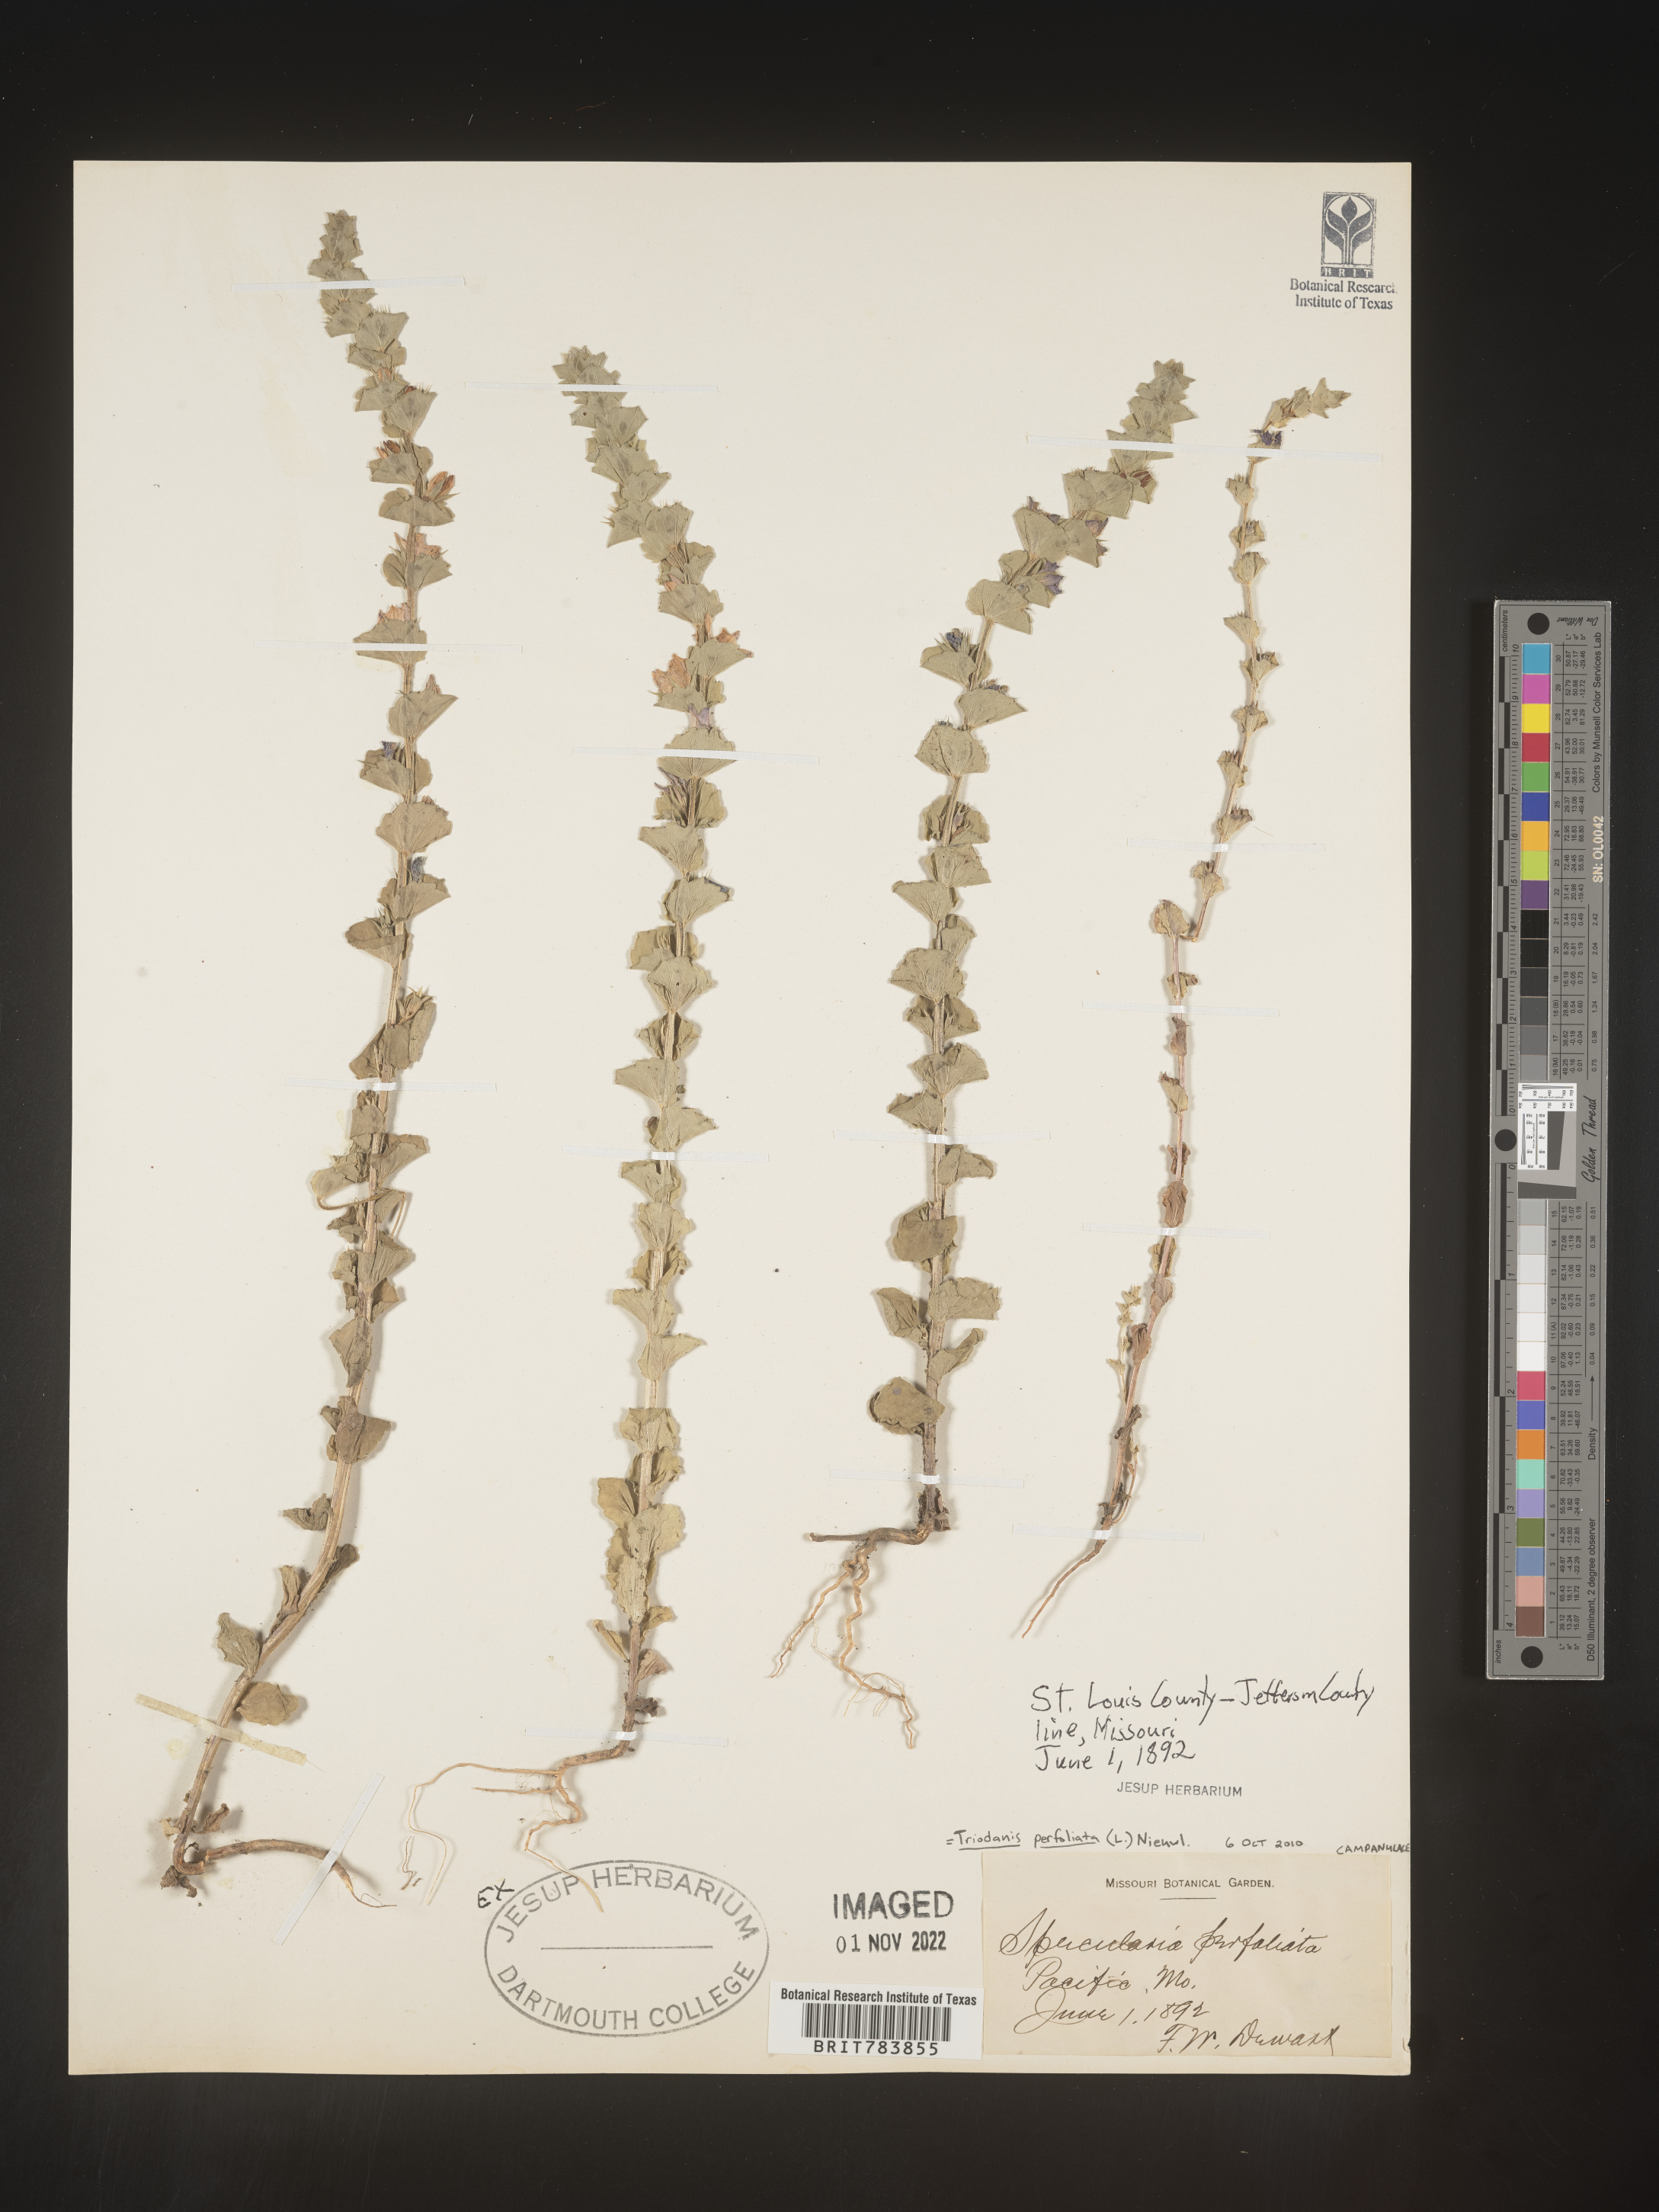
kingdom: Plantae
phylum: Tracheophyta
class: Magnoliopsida
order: Asterales
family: Campanulaceae
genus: Triodanis
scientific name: Triodanis perfoliata
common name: Clasping venus' looking-glass
